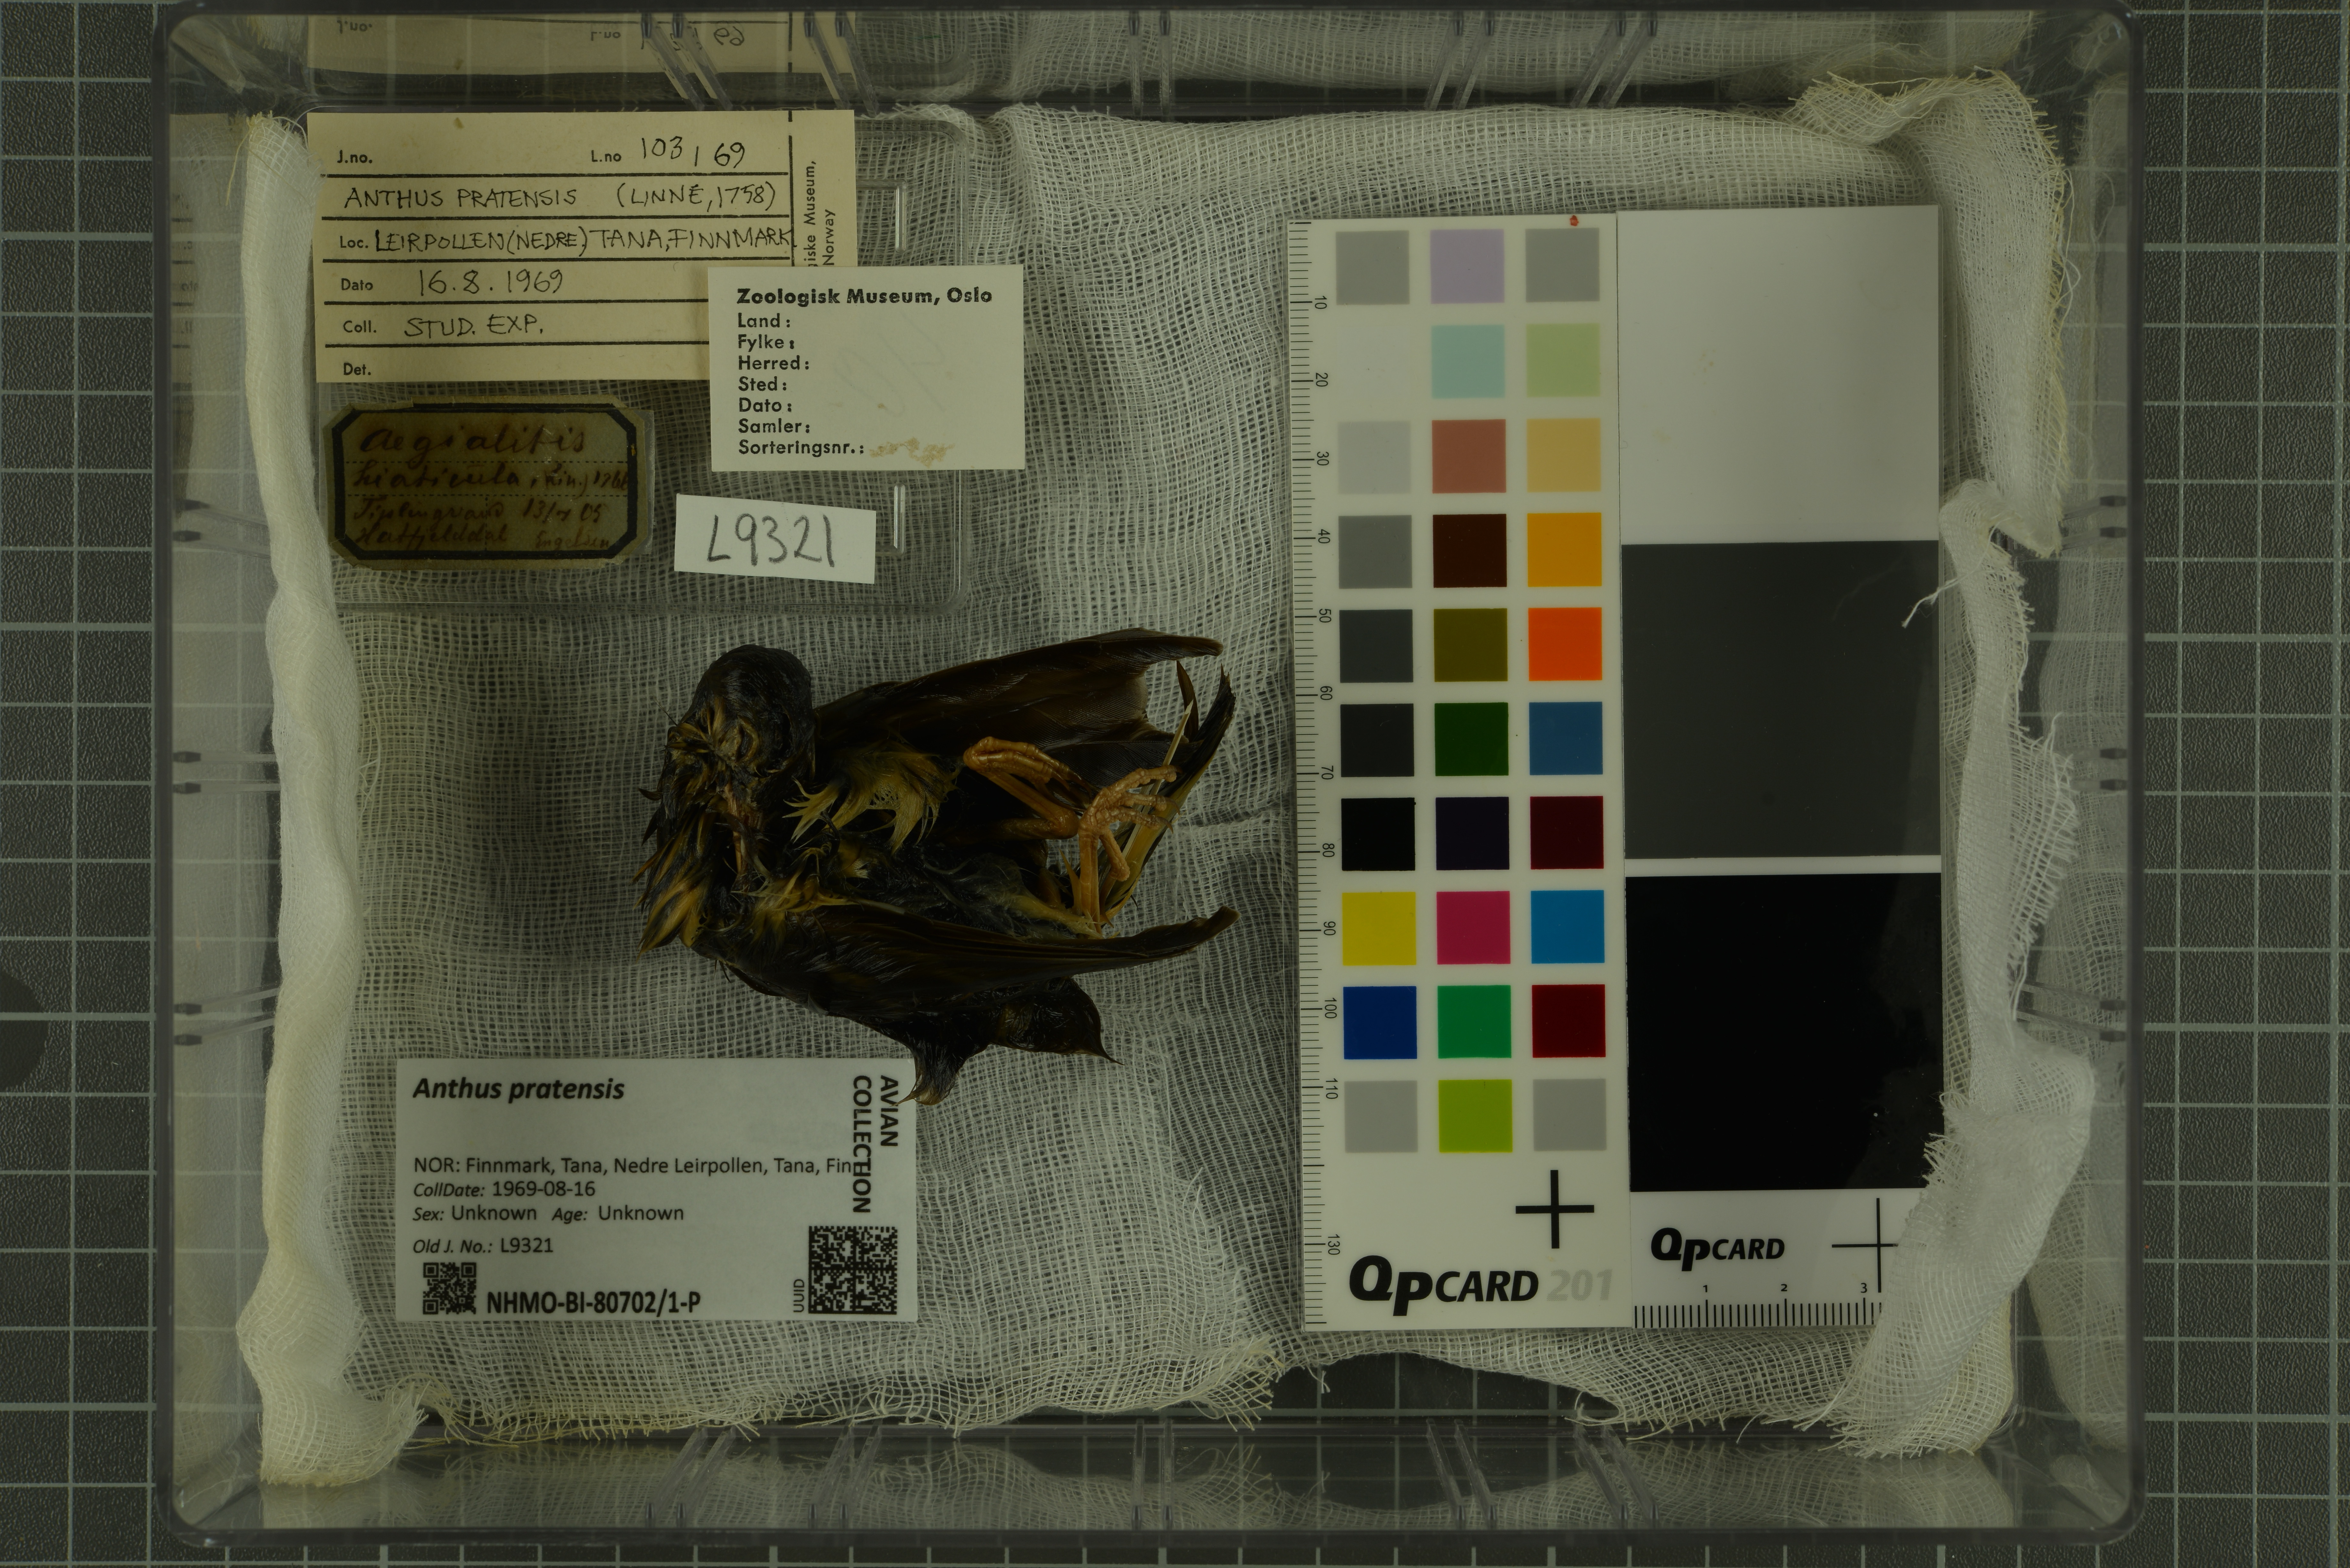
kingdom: Animalia
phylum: Chordata
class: Aves
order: Passeriformes
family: Motacillidae
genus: Anthus
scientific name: Anthus pratensis
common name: Meadow pipit
